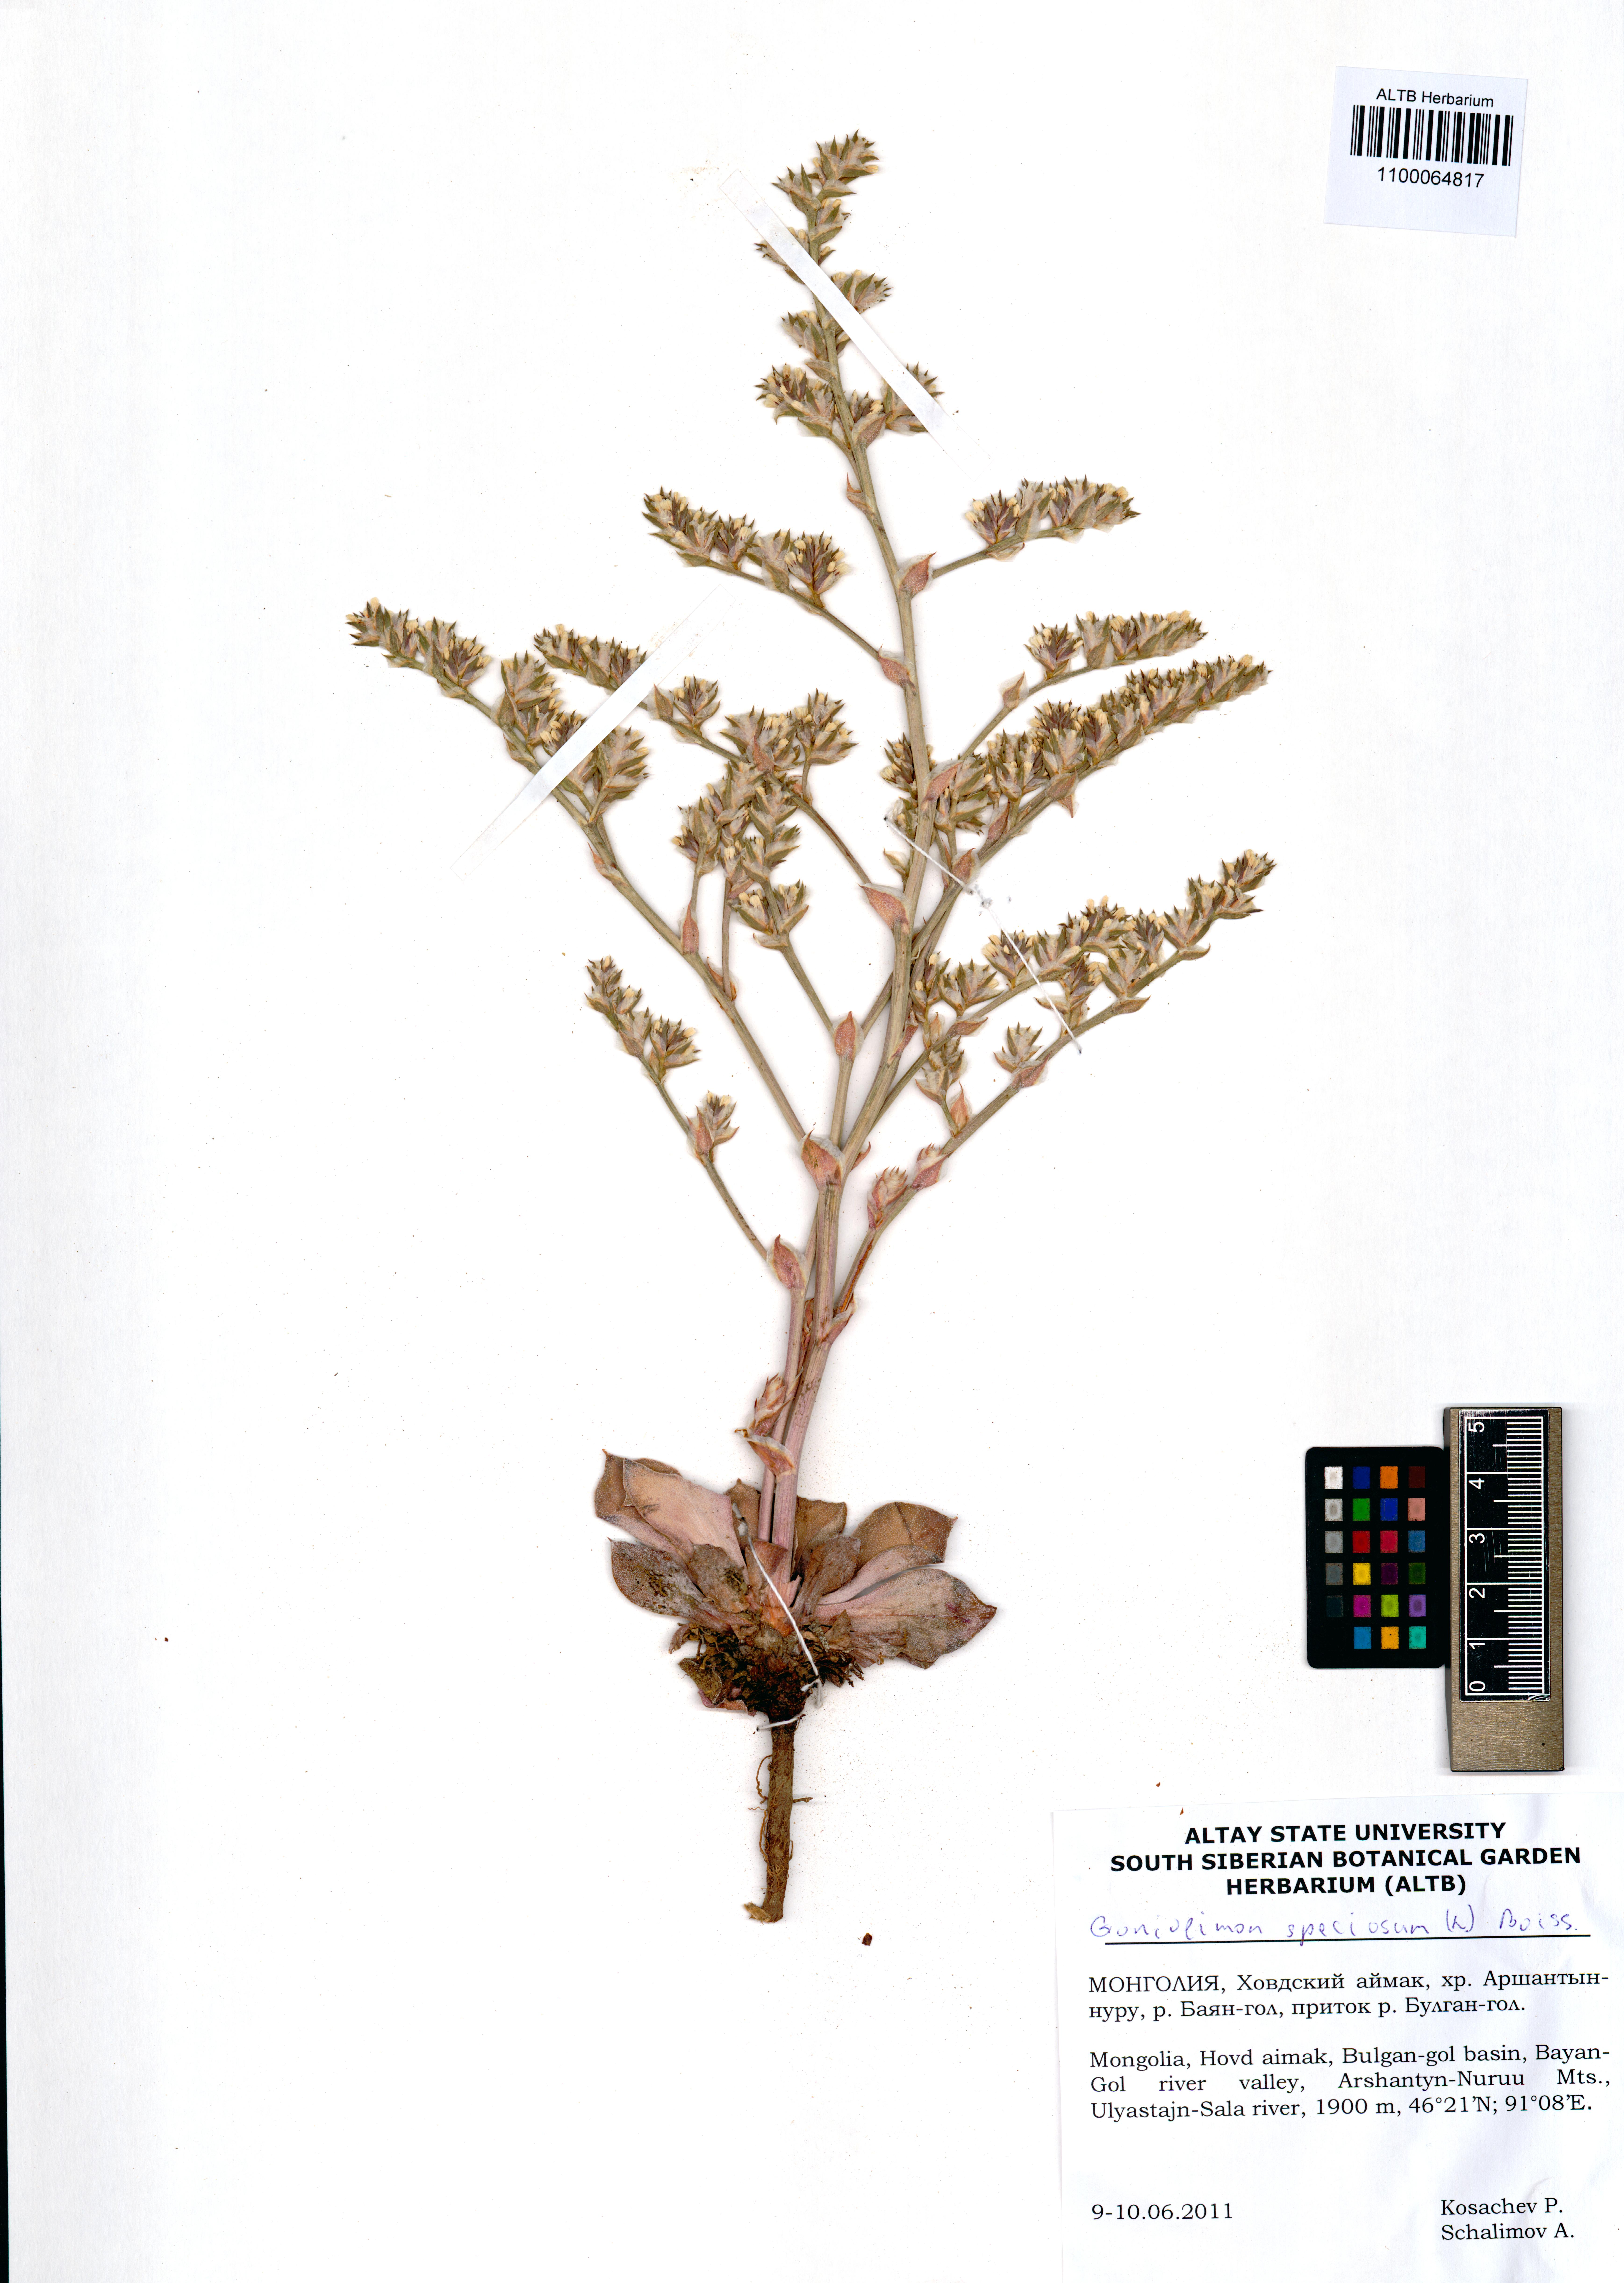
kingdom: Plantae
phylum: Tracheophyta
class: Magnoliopsida
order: Caryophyllales
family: Plumbaginaceae
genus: Goniolimon
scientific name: Goniolimon speciosum
